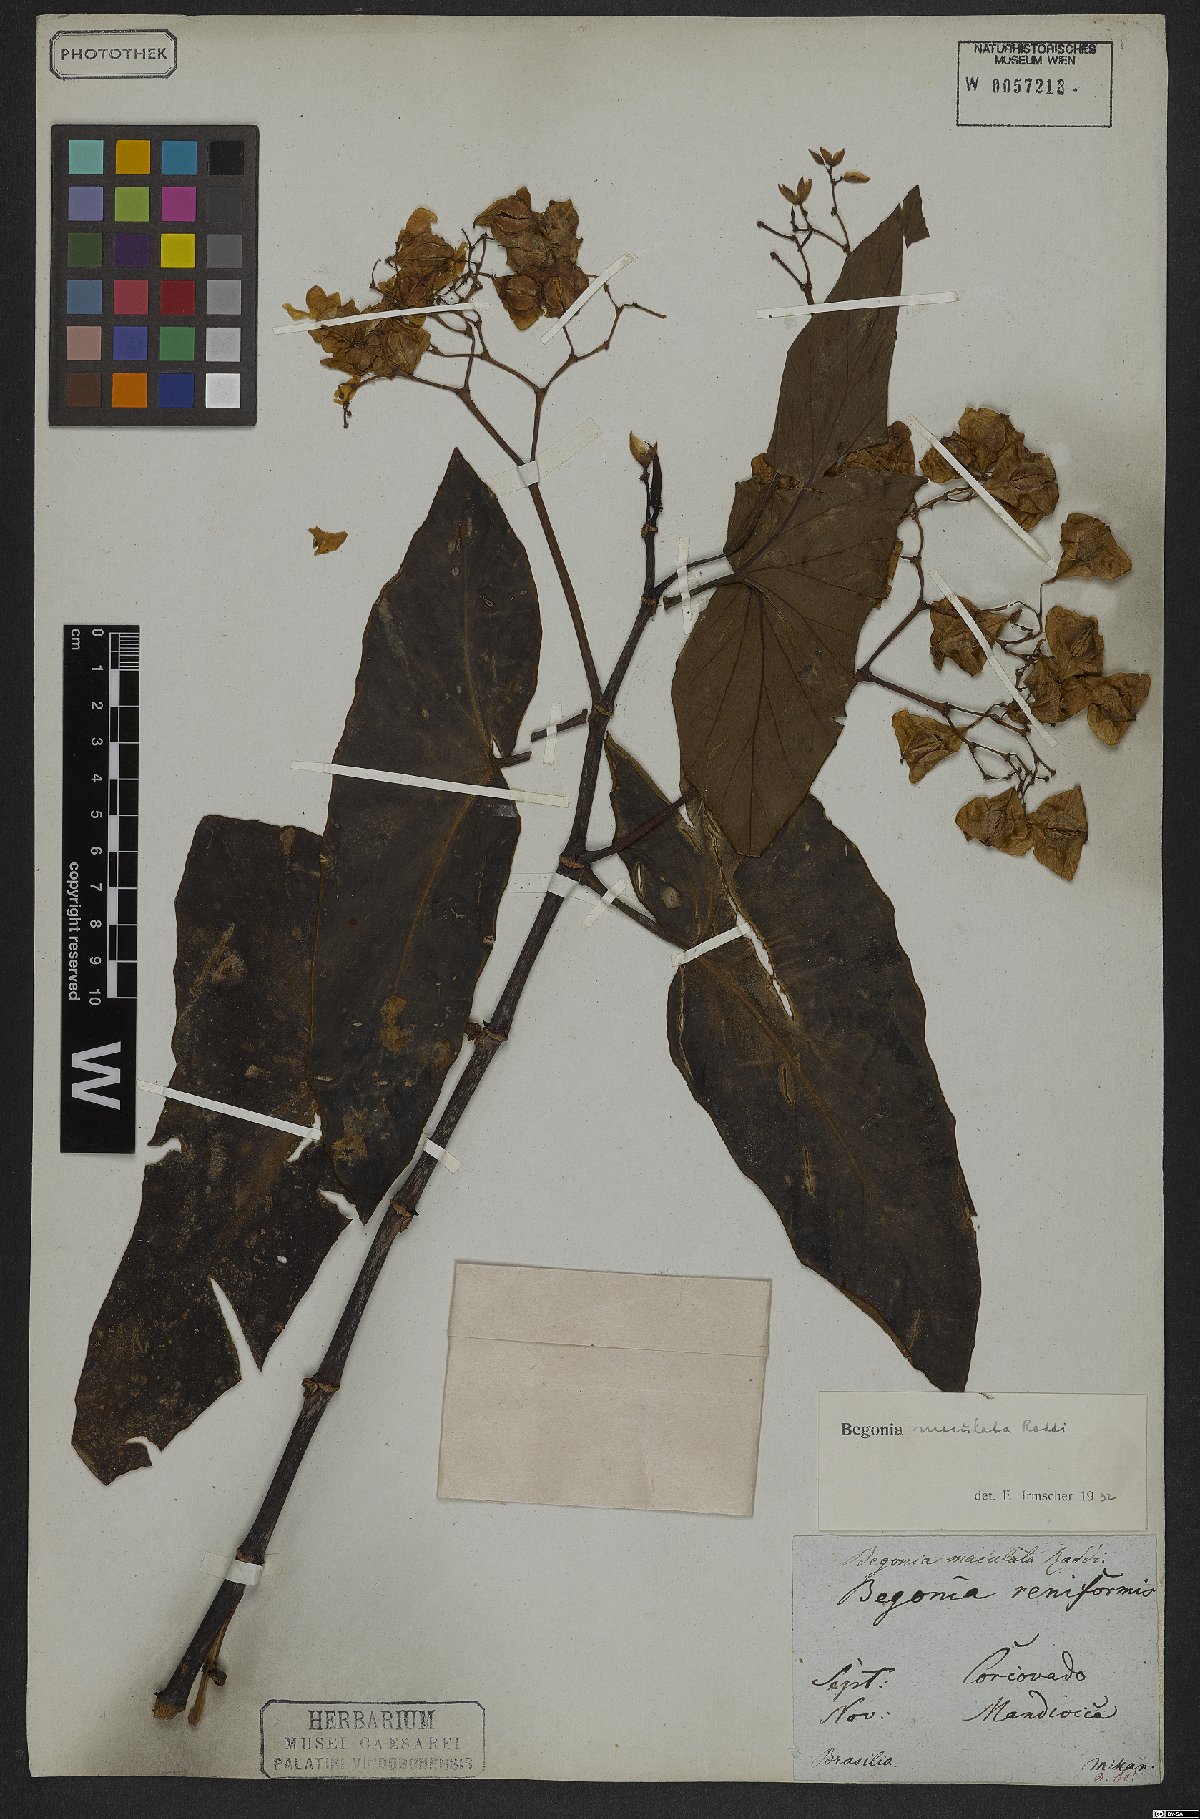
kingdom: Plantae
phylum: Tracheophyta
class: Magnoliopsida
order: Cucurbitales
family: Begoniaceae
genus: Begonia
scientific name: Begonia maculata
